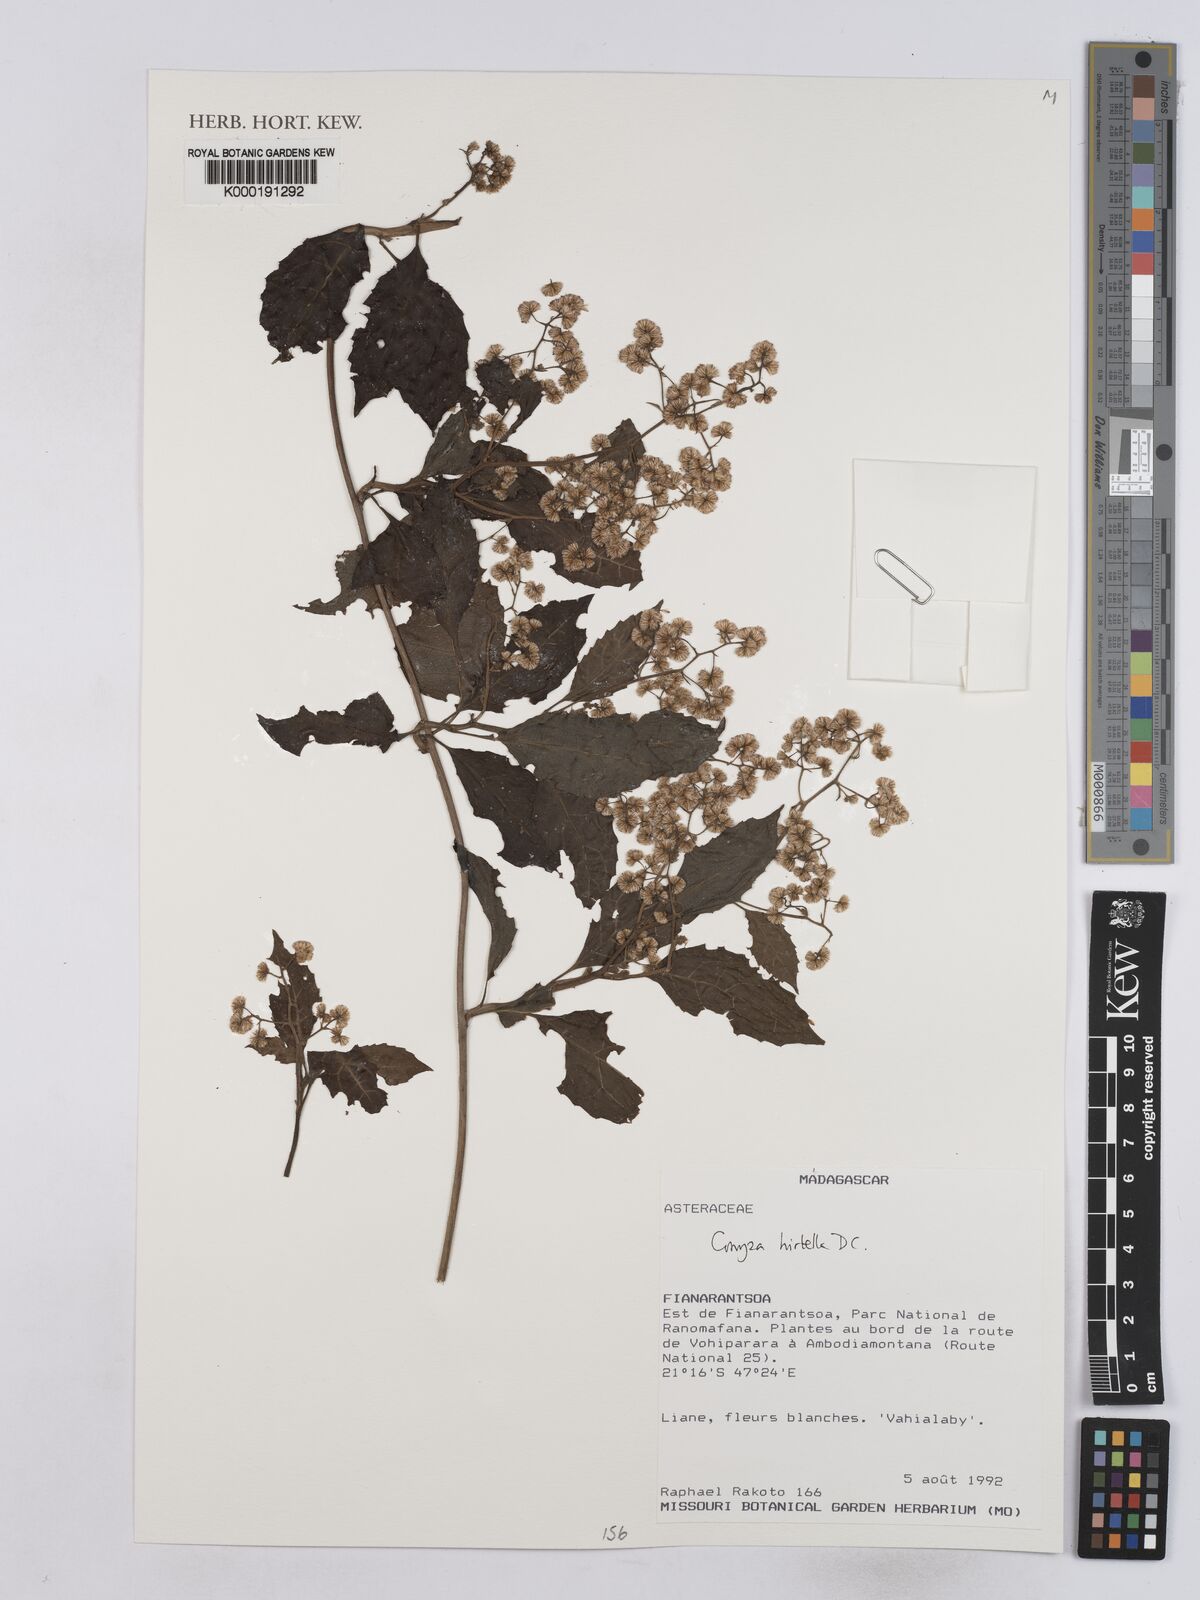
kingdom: Plantae
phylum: Tracheophyta
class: Magnoliopsida
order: Asterales
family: Asteraceae
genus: Microglossa
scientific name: Microglossa psiadioides
